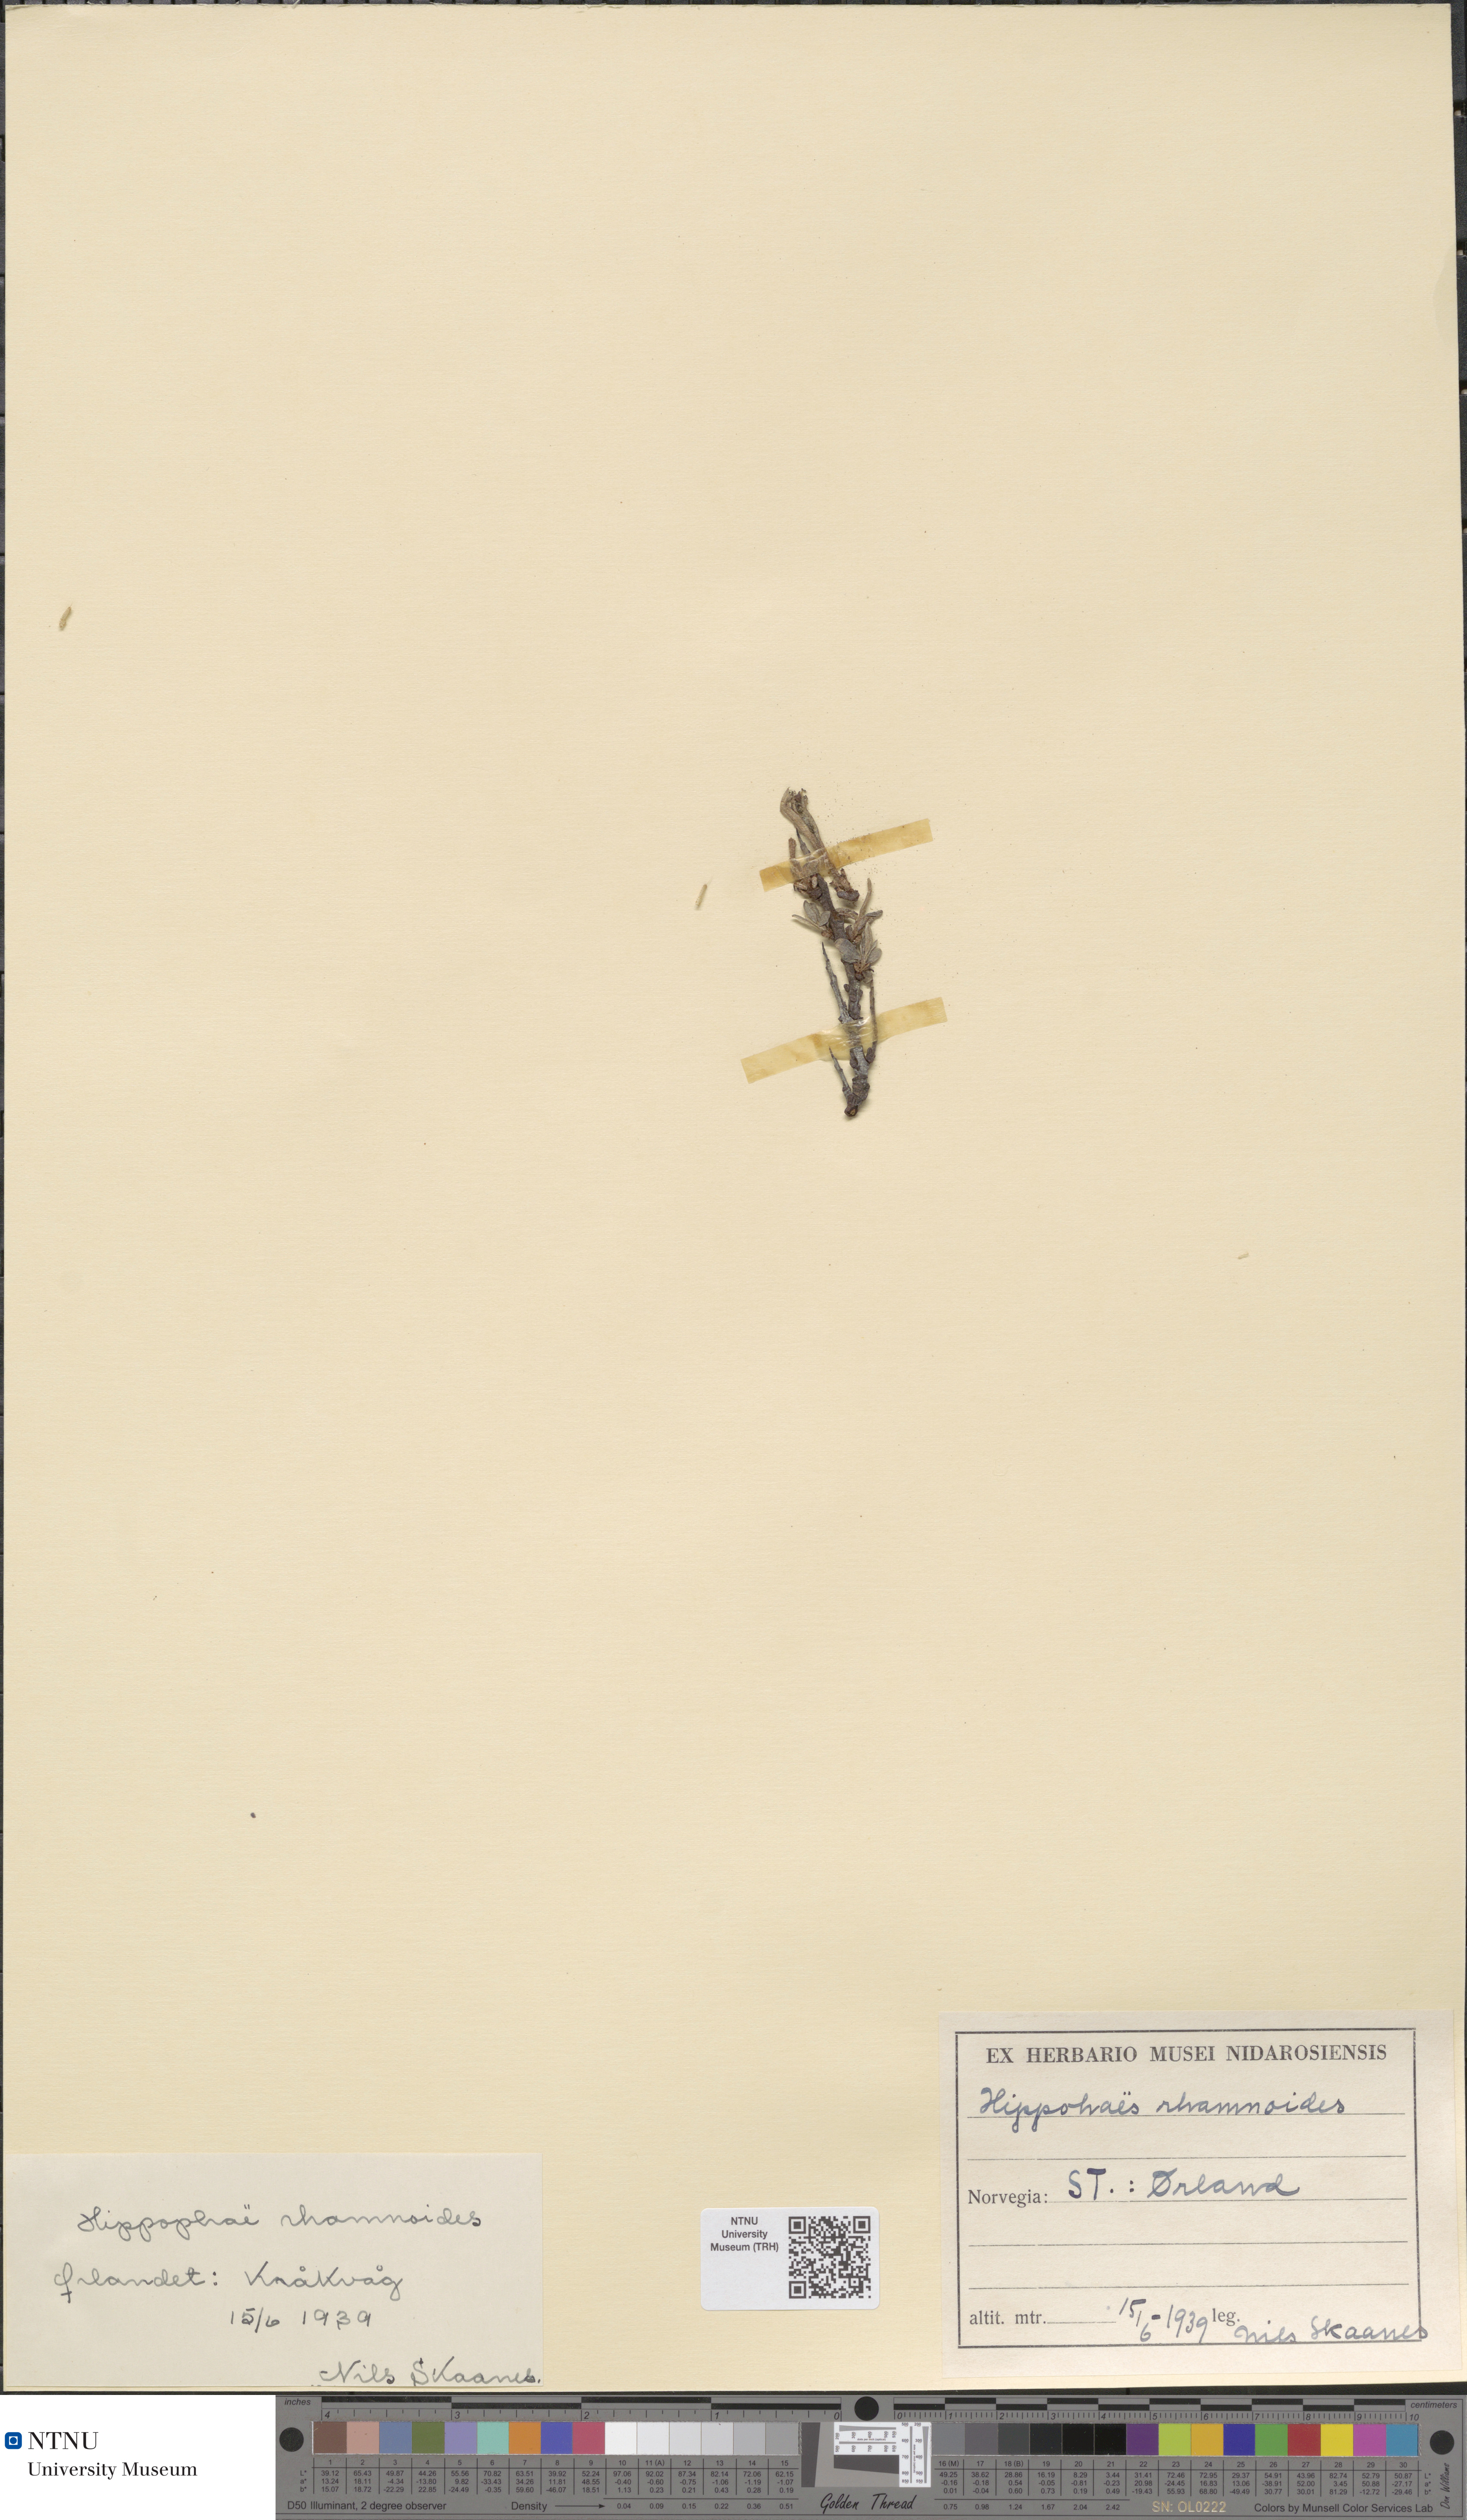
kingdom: Plantae
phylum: Tracheophyta
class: Magnoliopsida
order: Rosales
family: Elaeagnaceae
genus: Hippophae
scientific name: Hippophae rhamnoides
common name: Sea-buckthorn
